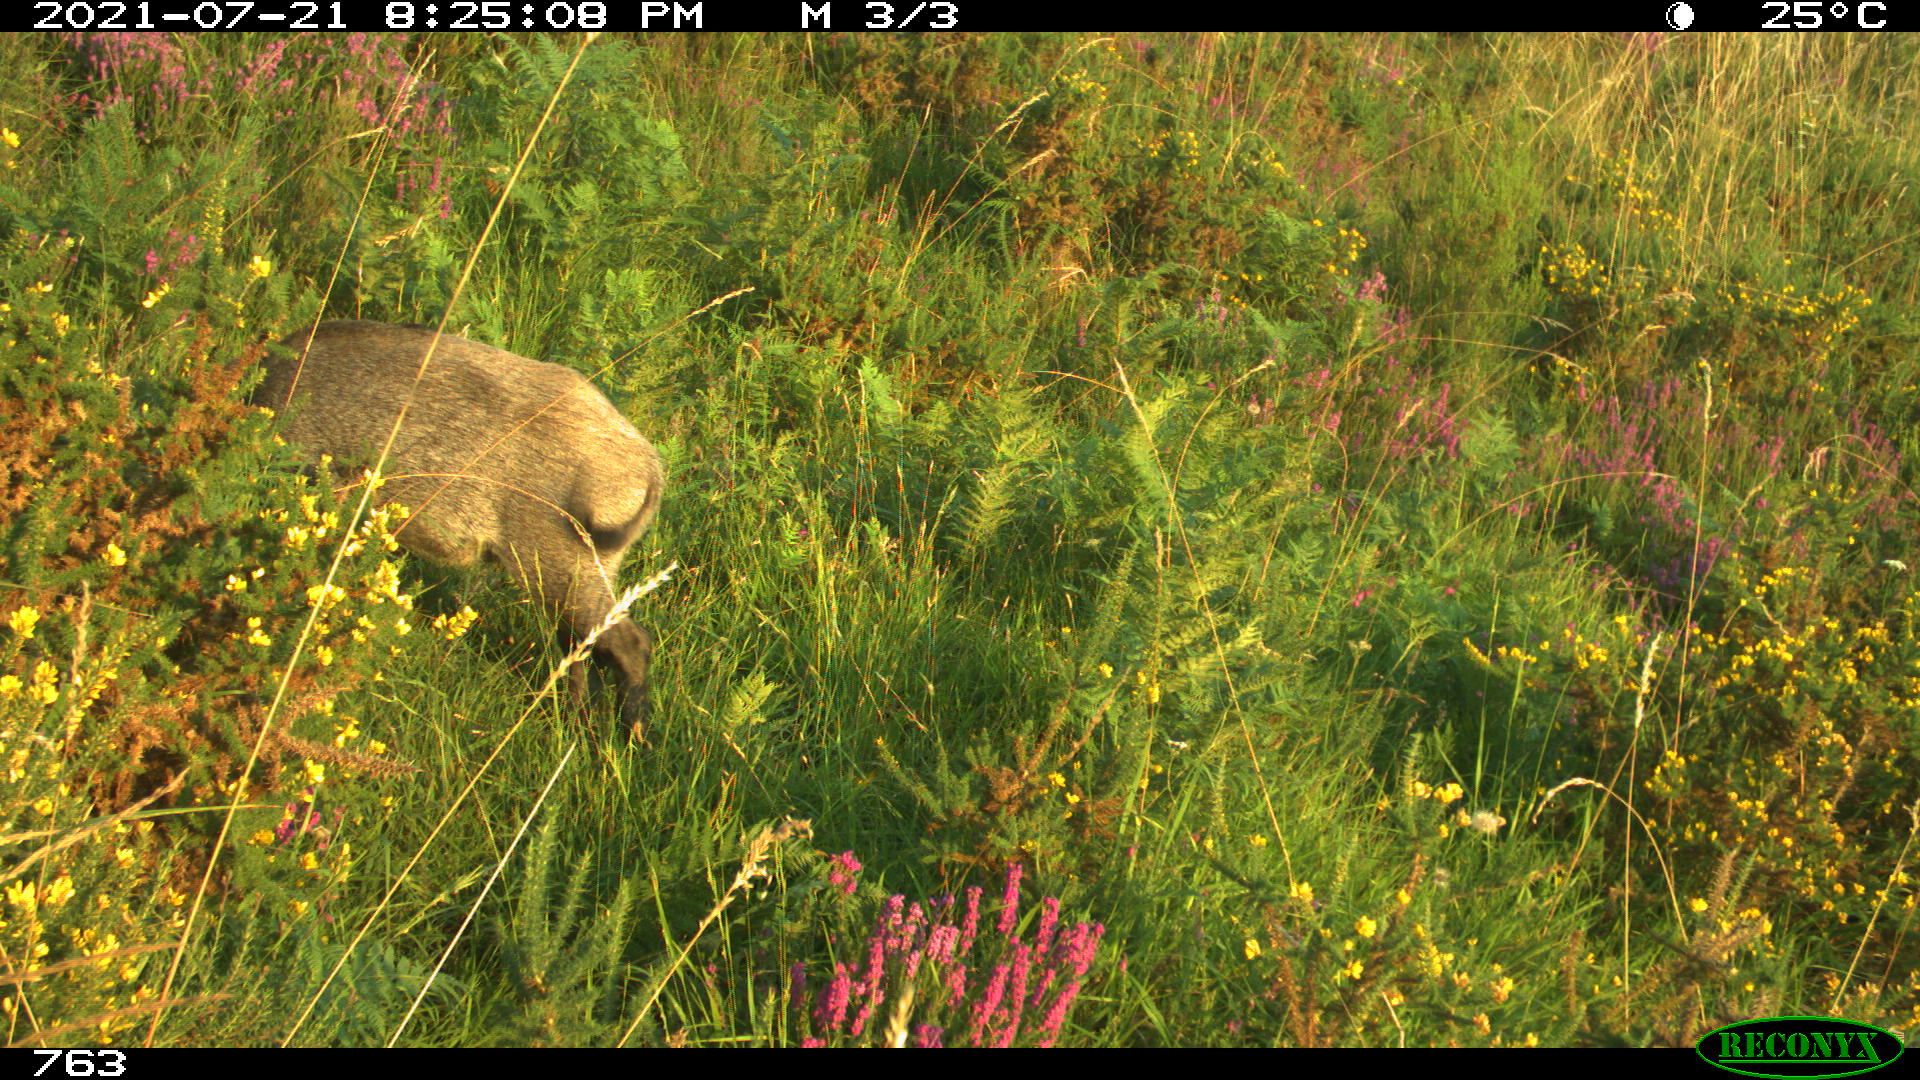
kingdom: Animalia
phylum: Chordata
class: Mammalia
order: Artiodactyla
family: Suidae
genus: Sus
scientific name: Sus scrofa
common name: Wild boar
